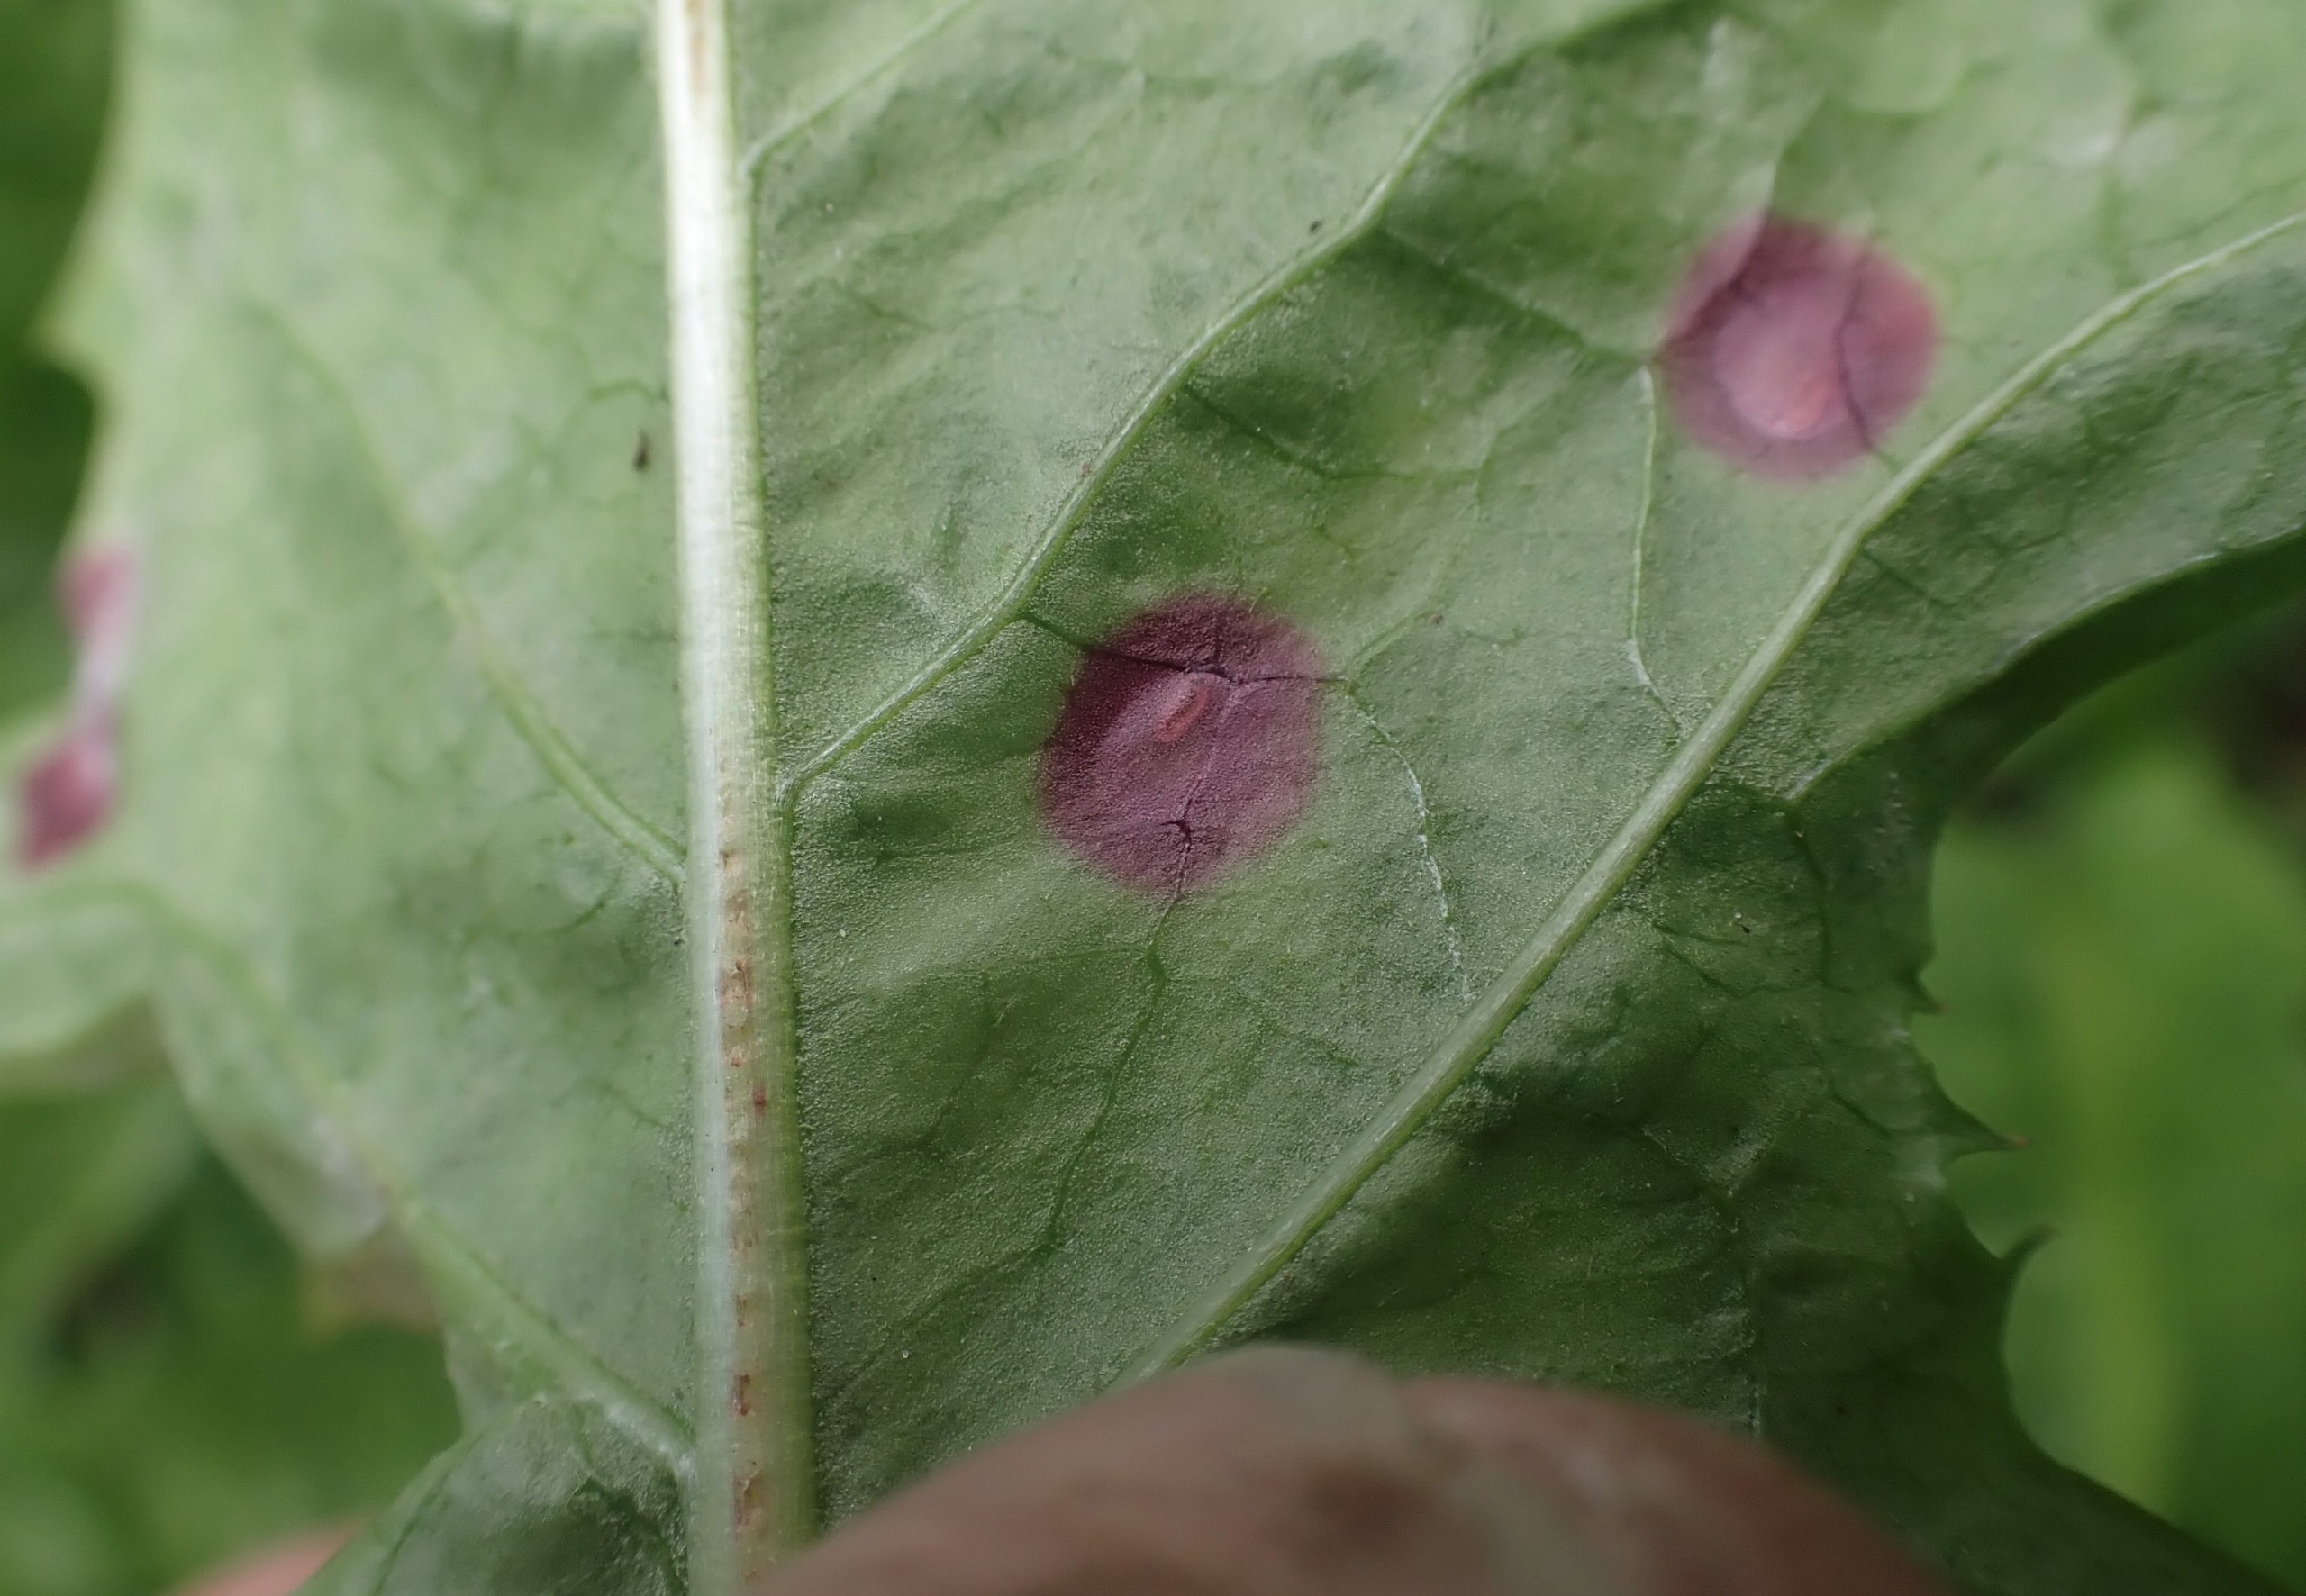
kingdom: Animalia
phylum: Arthropoda
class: Insecta
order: Diptera
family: Cecidomyiidae
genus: Cystiphora
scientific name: Cystiphora taraxaci
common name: Mælkebøttegalmyg
